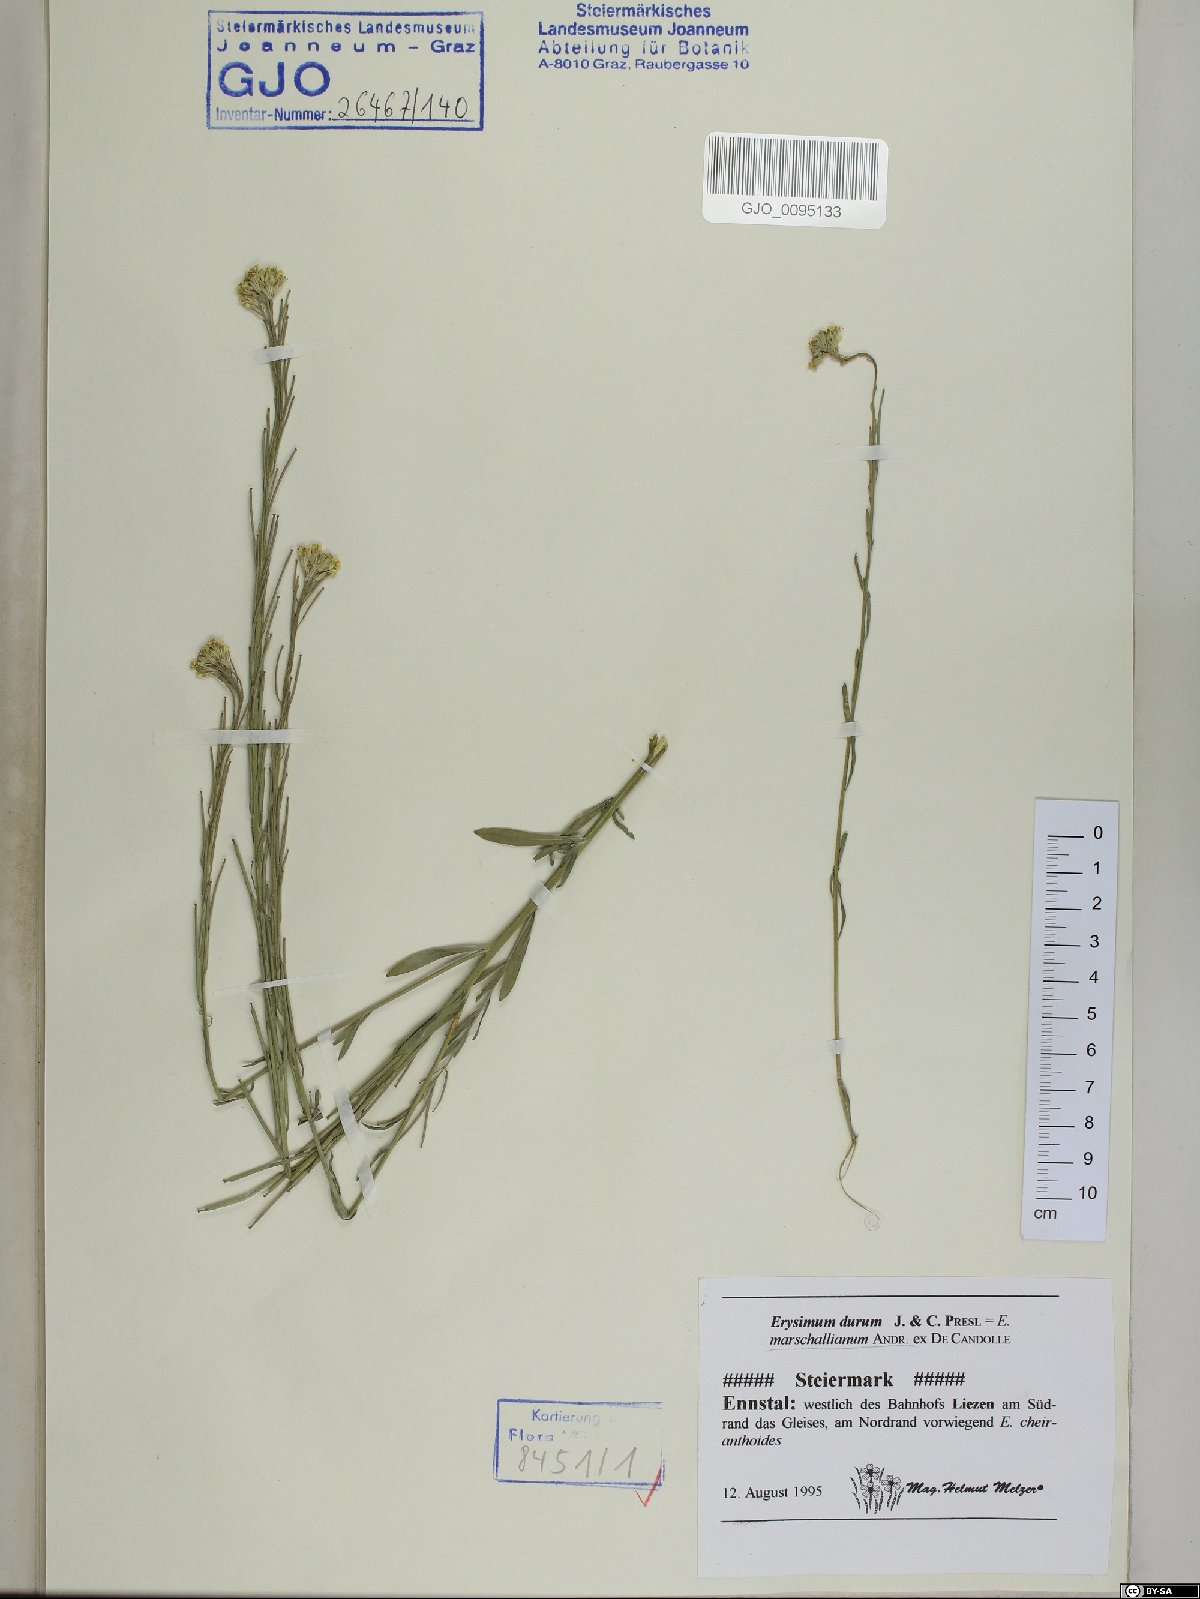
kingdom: Plantae
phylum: Tracheophyta
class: Magnoliopsida
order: Brassicales
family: Brassicaceae
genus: Erysimum
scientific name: Erysimum marschallianum
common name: Hard wallflower
